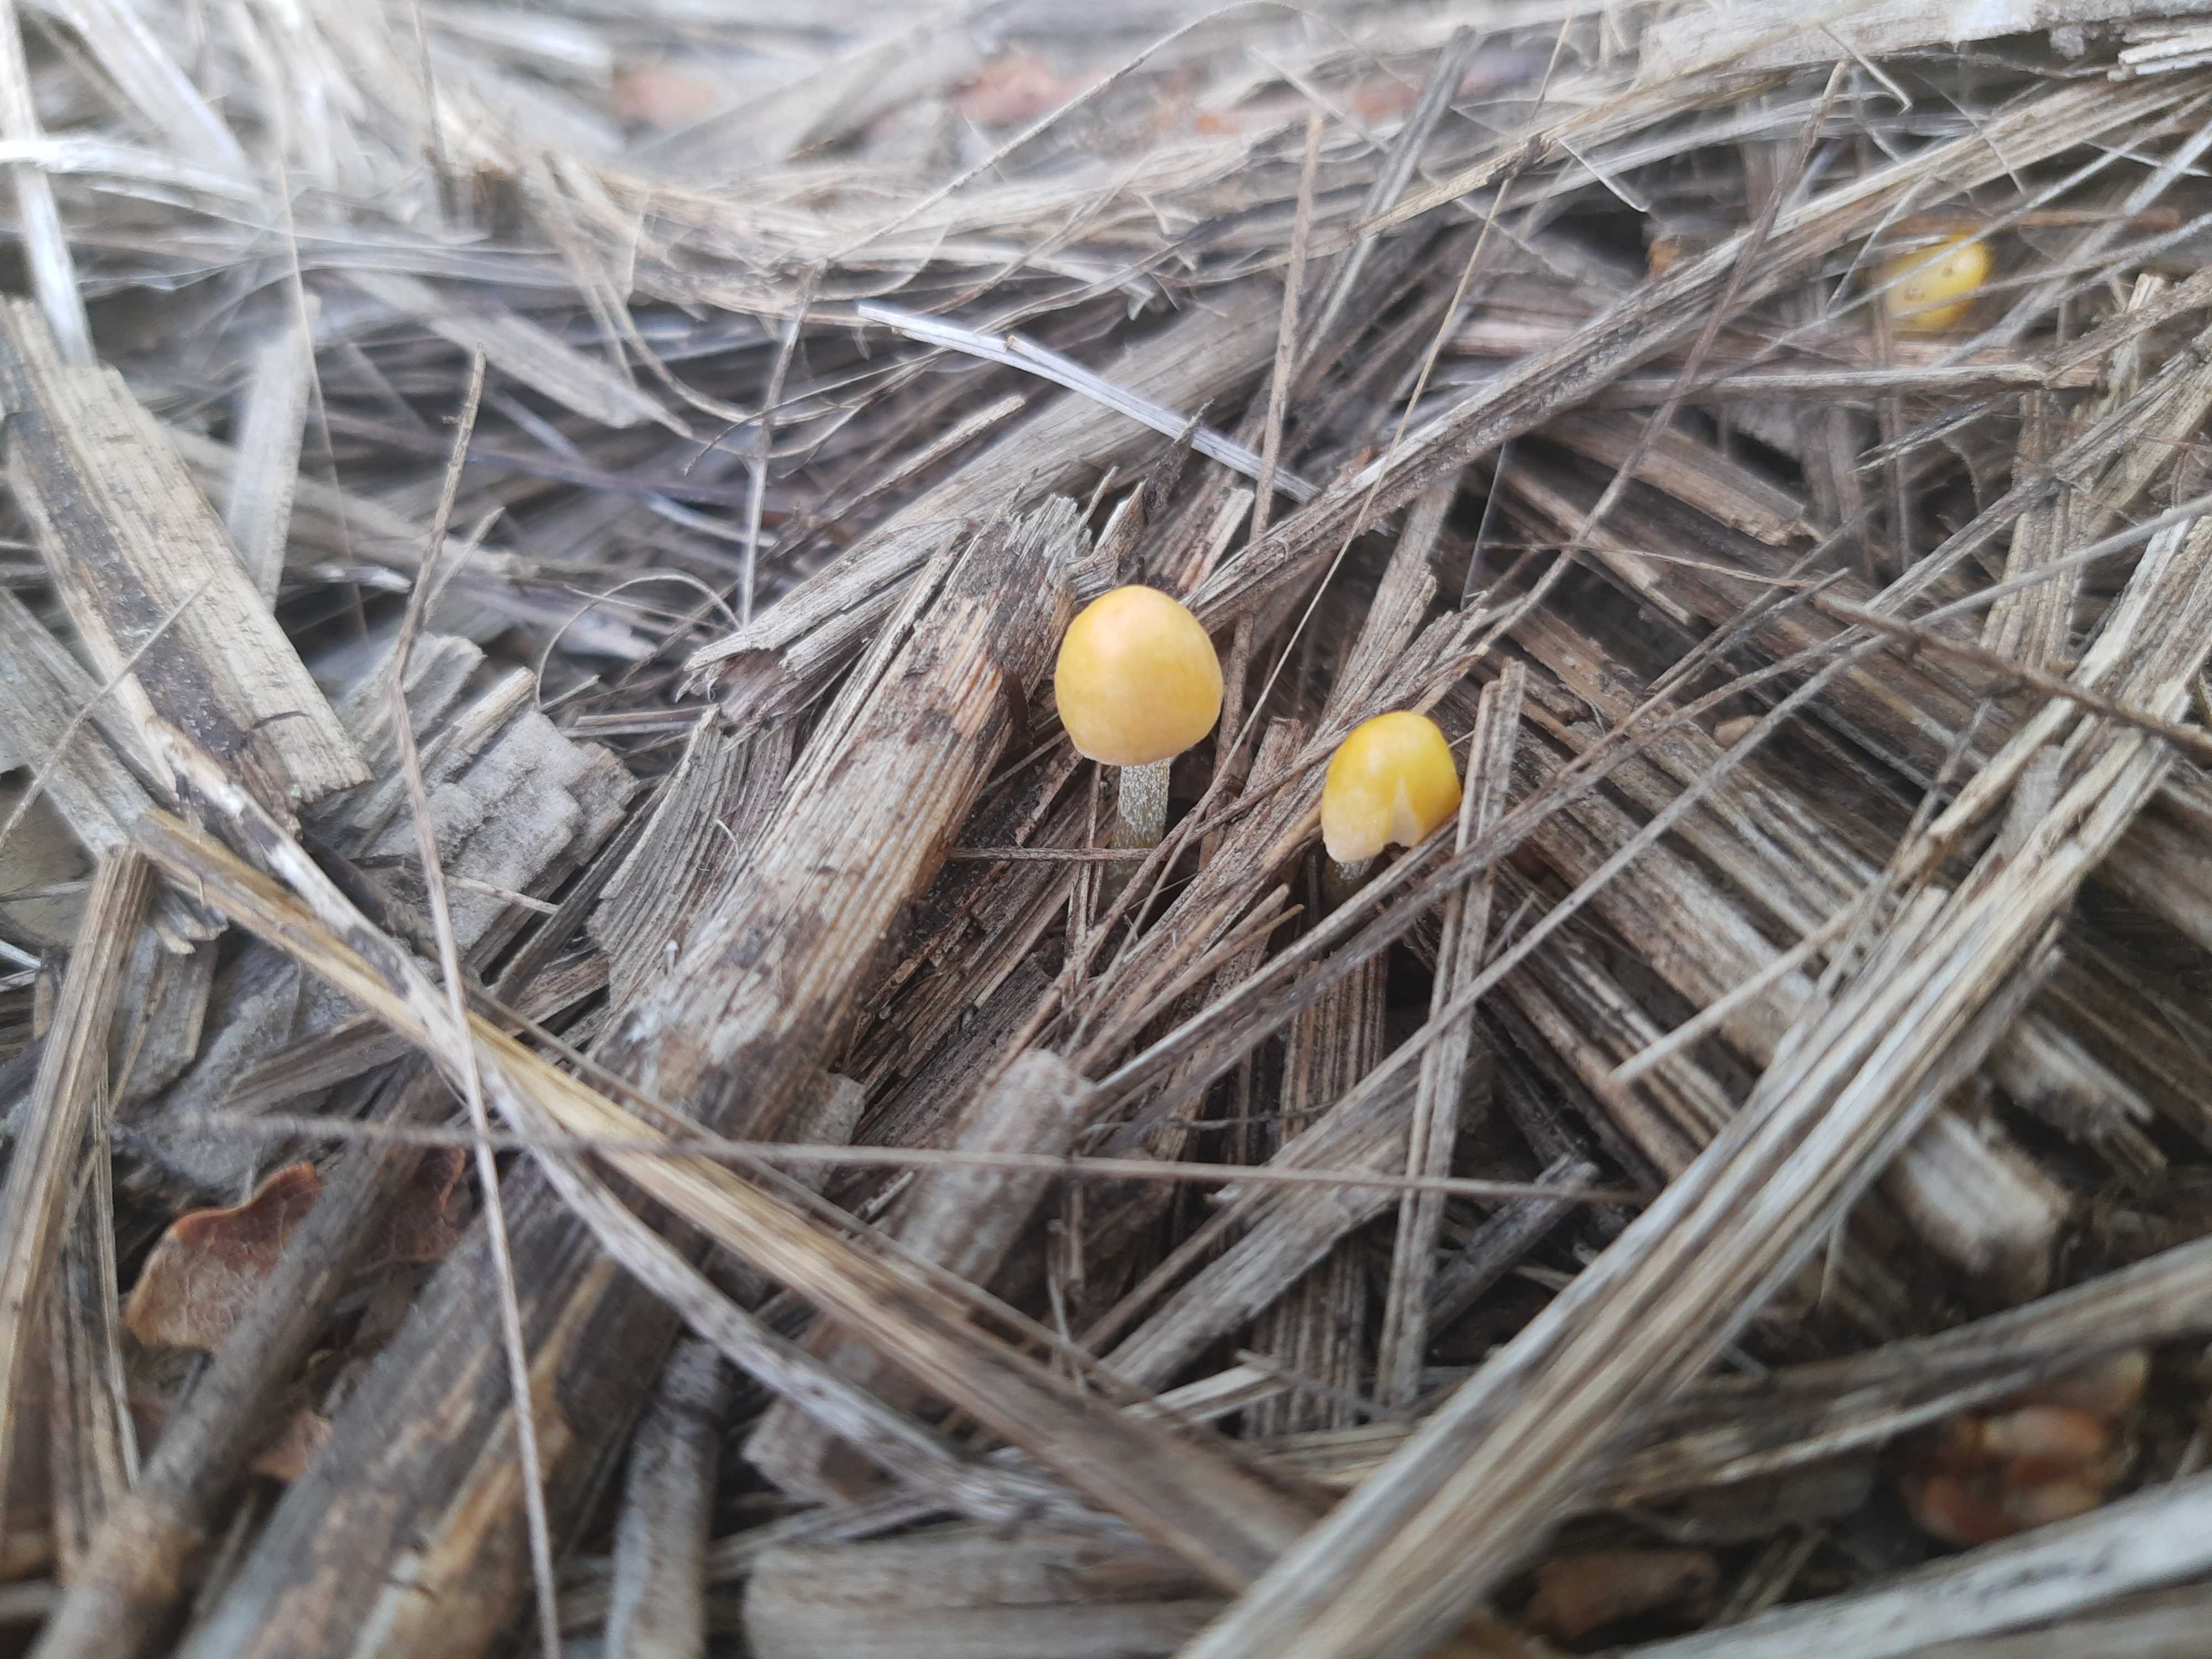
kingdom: Fungi
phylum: Basidiomycota
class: Agaricomycetes
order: Agaricales
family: Bolbitiaceae
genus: Bolbitius
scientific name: Bolbitius titubans
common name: almindelig gulhat
